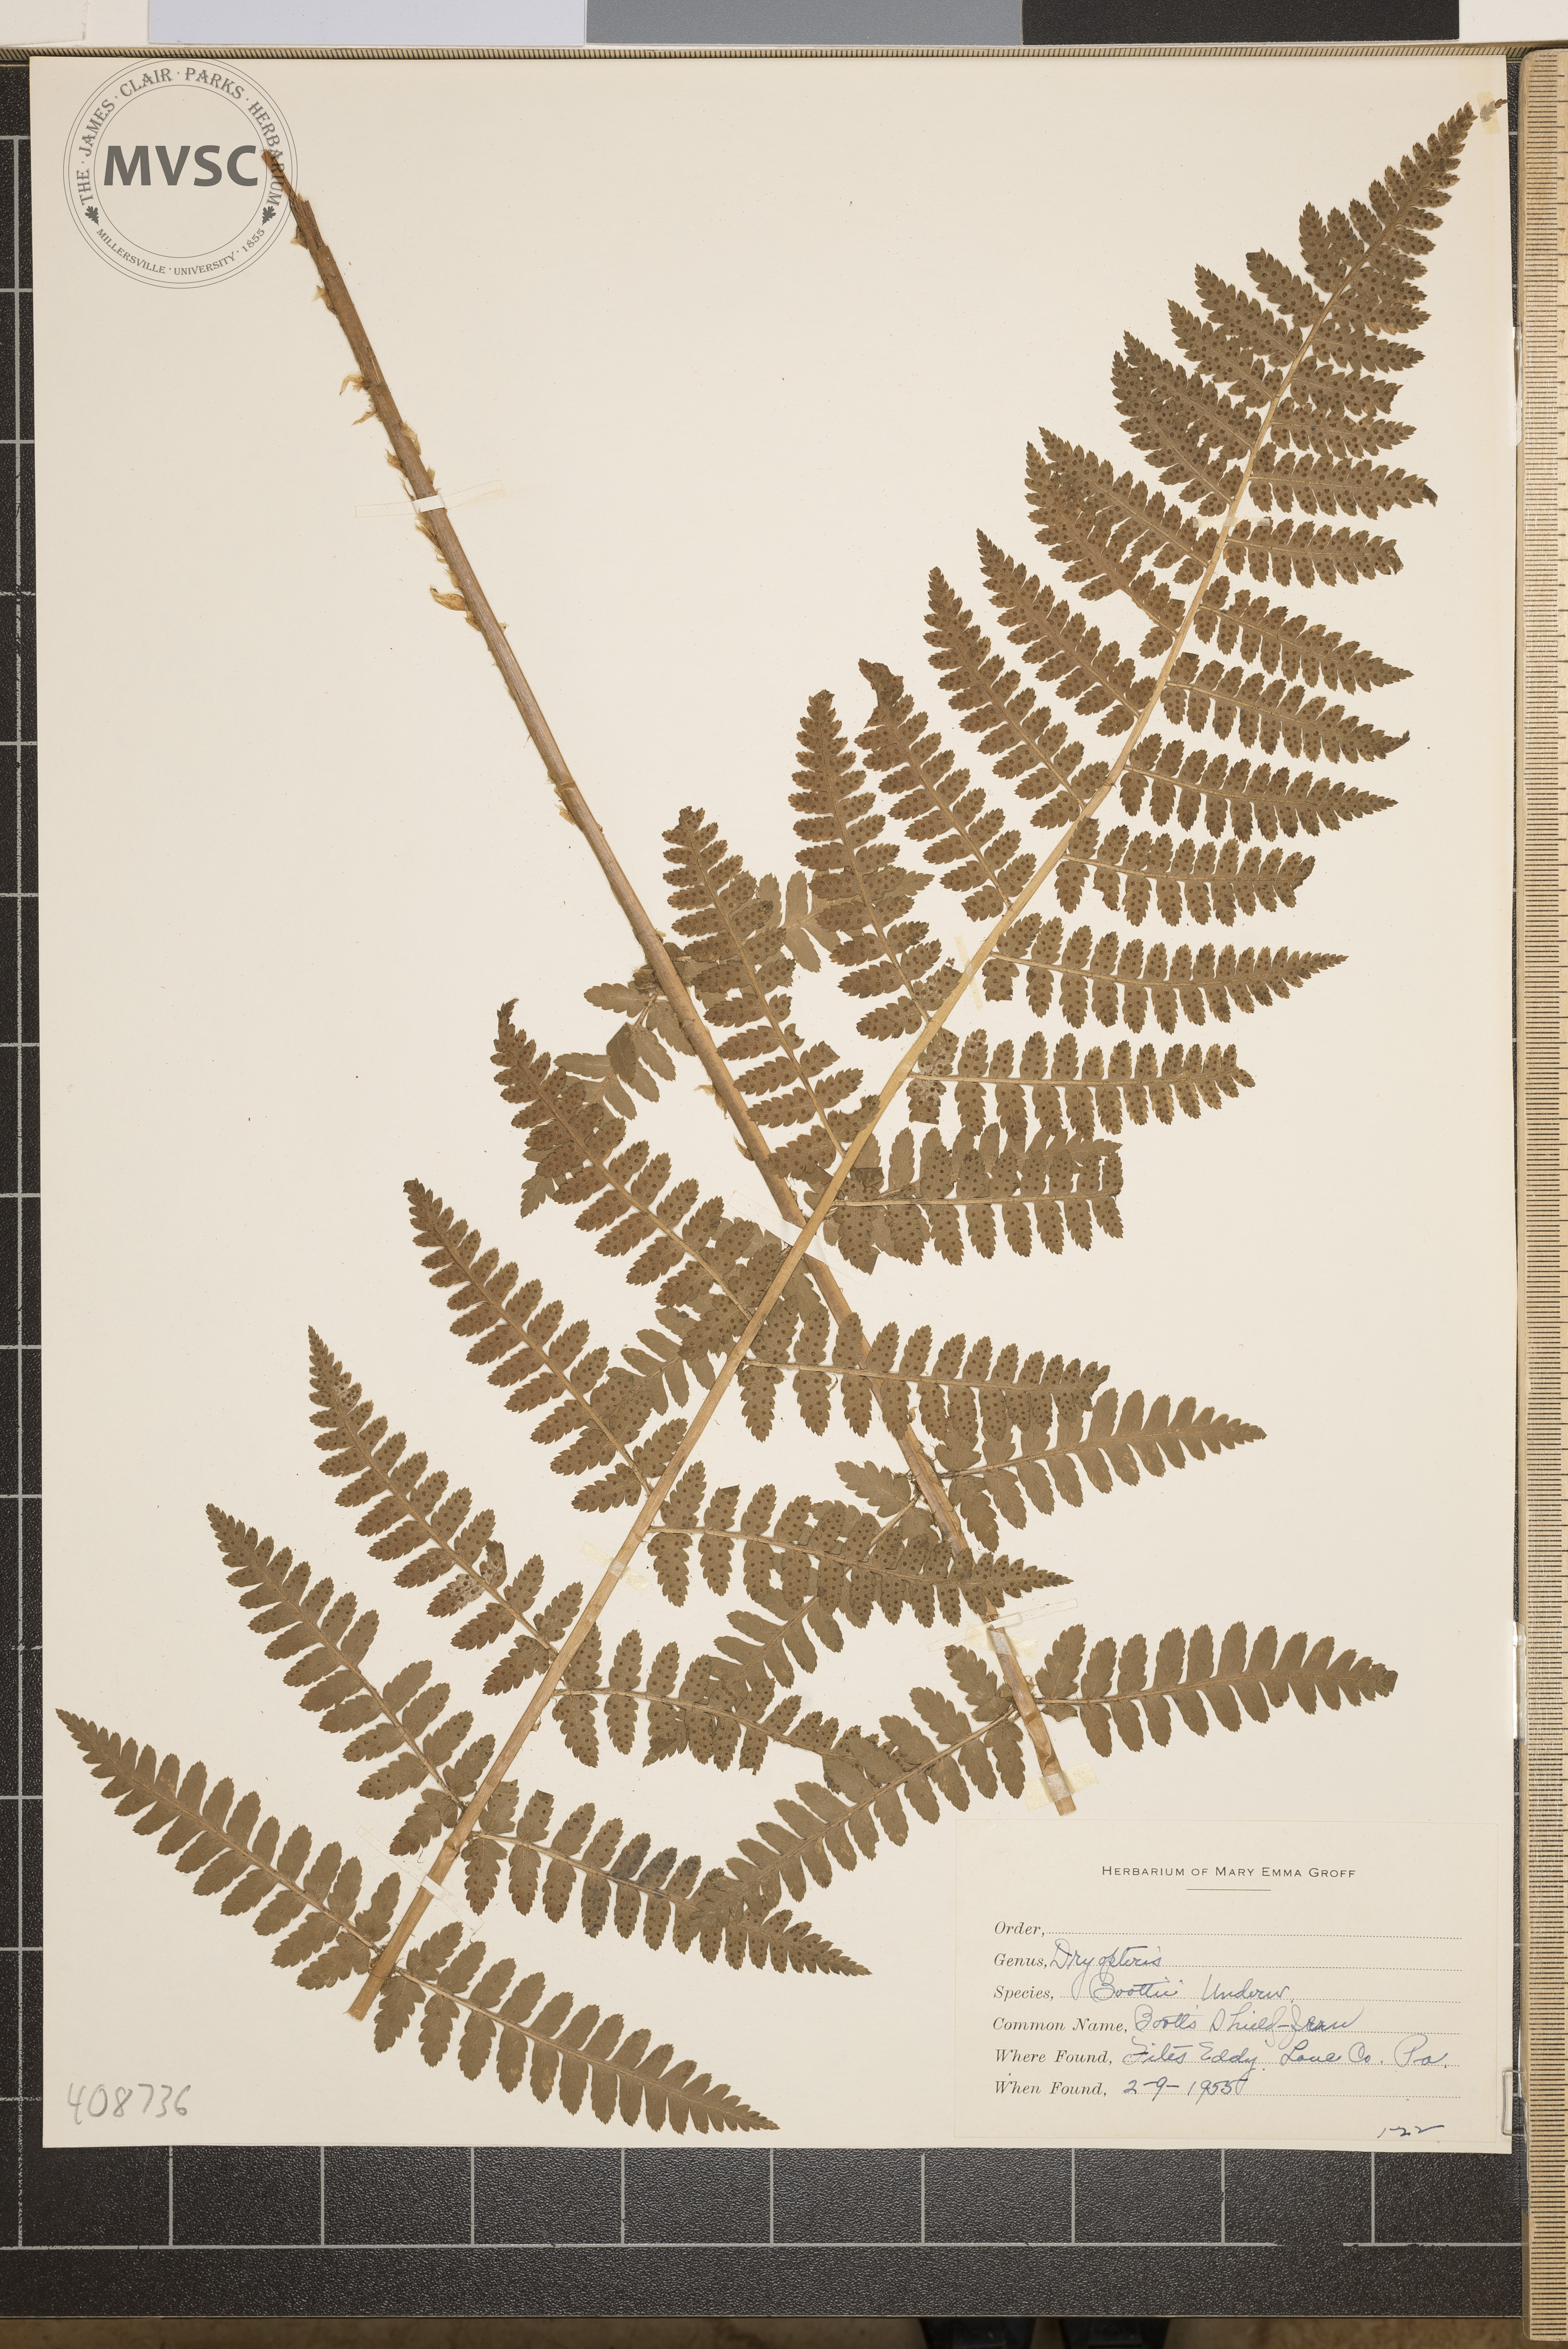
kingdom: Plantae
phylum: Tracheophyta
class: Polypodiopsida
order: Polypodiales
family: Dryopteridaceae
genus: Dryopteris
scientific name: Dryopteris boottii
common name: Boott's Shield Fern
